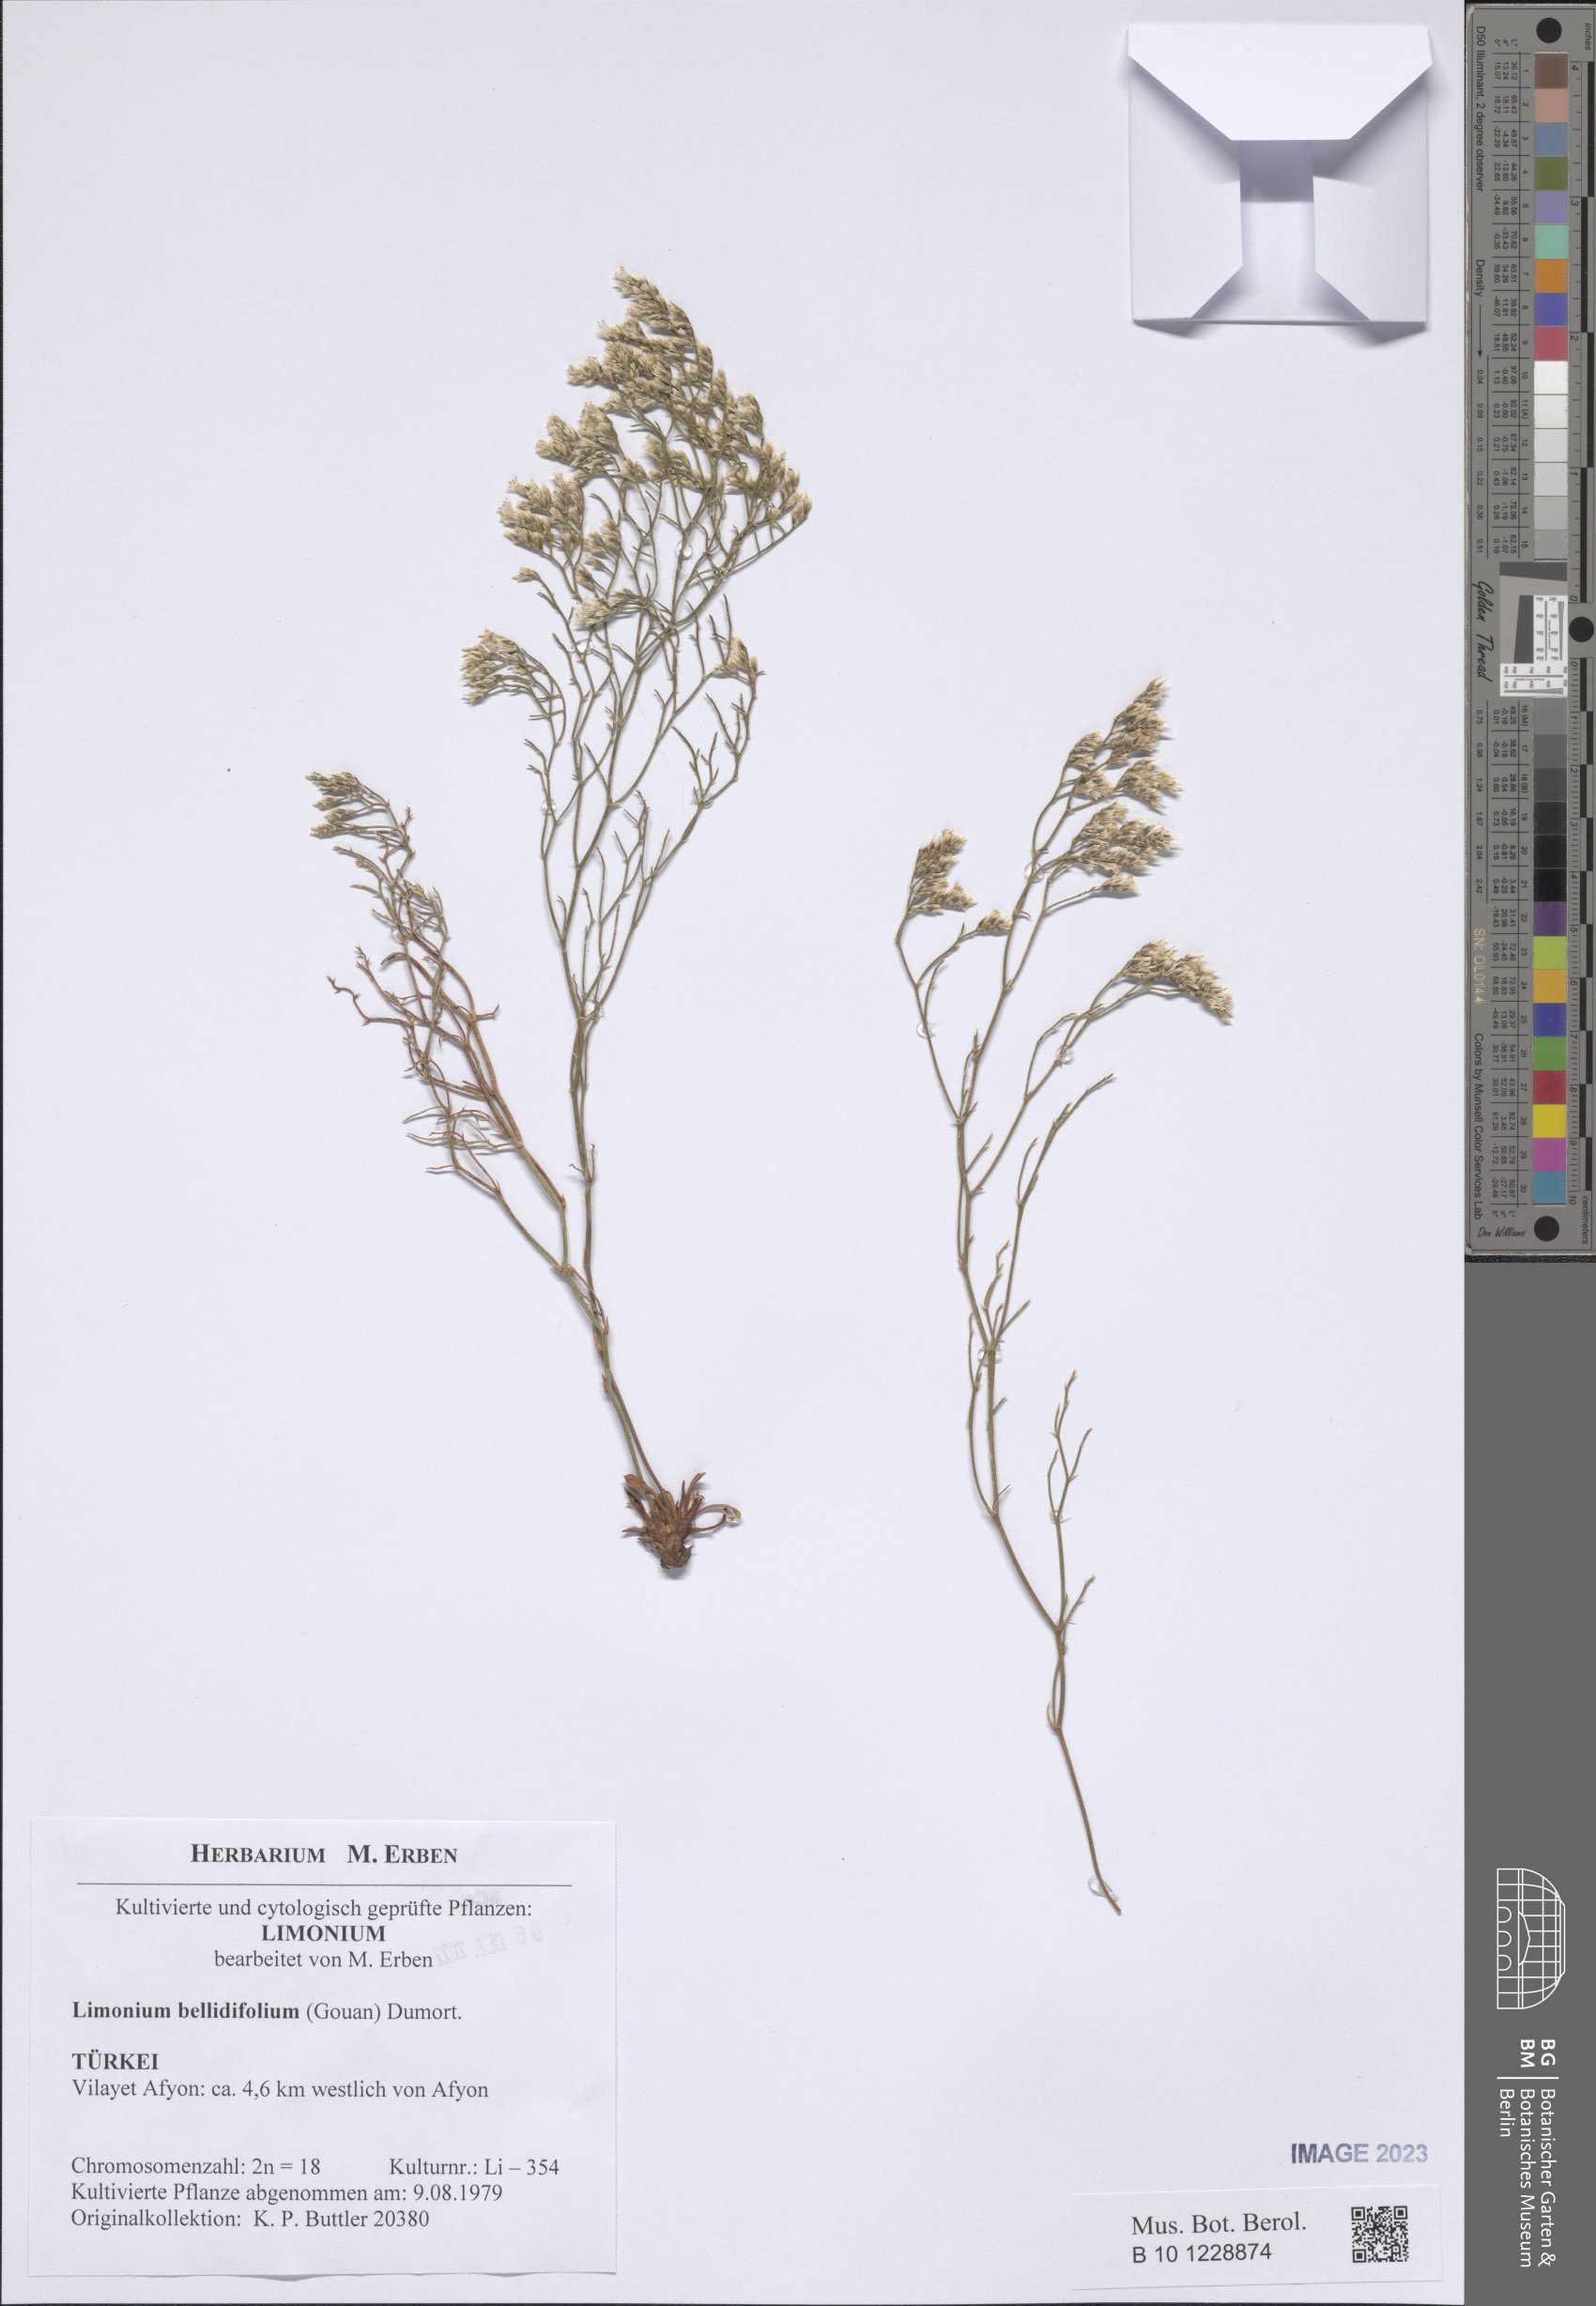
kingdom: Plantae
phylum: Tracheophyta
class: Magnoliopsida
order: Caryophyllales
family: Plumbaginaceae
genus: Limonium
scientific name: Limonium bellidifolium
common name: Matted sea-lavender
